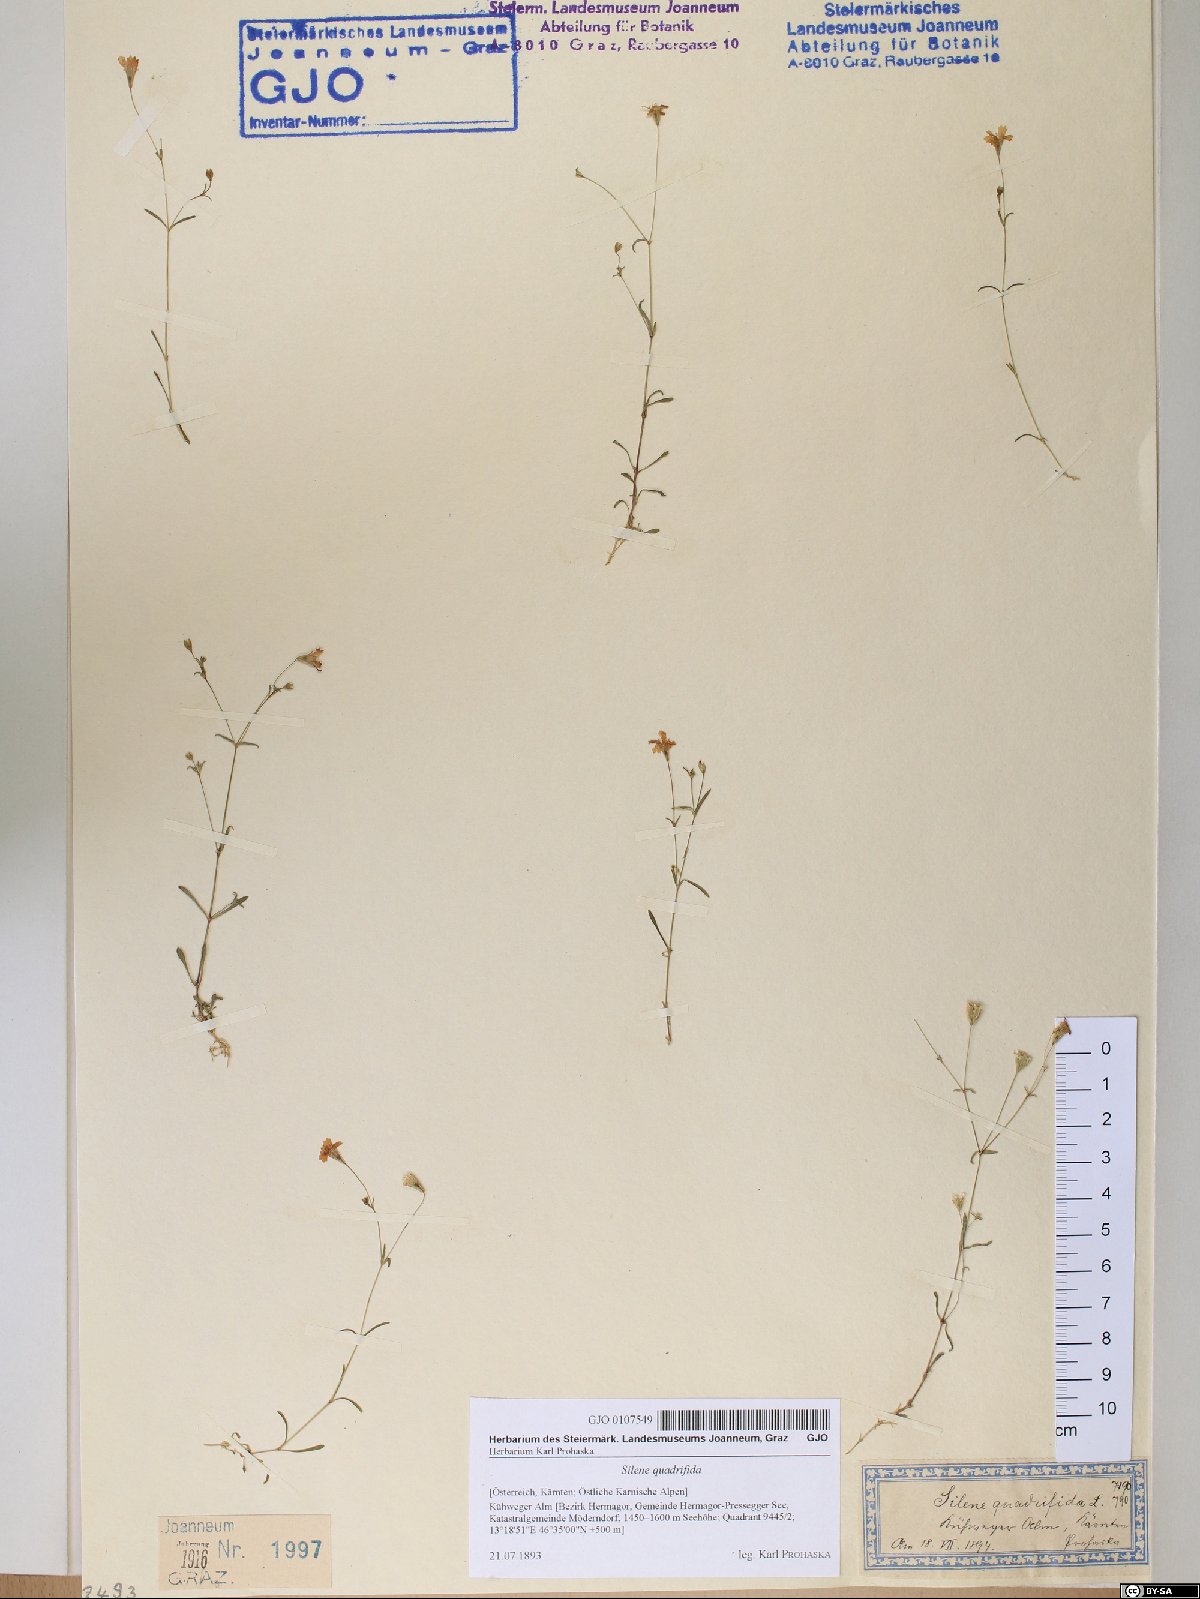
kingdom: Plantae
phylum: Tracheophyta
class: Magnoliopsida
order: Caryophyllales
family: Caryophyllaceae
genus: Heliosperma
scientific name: Heliosperma alpestre
